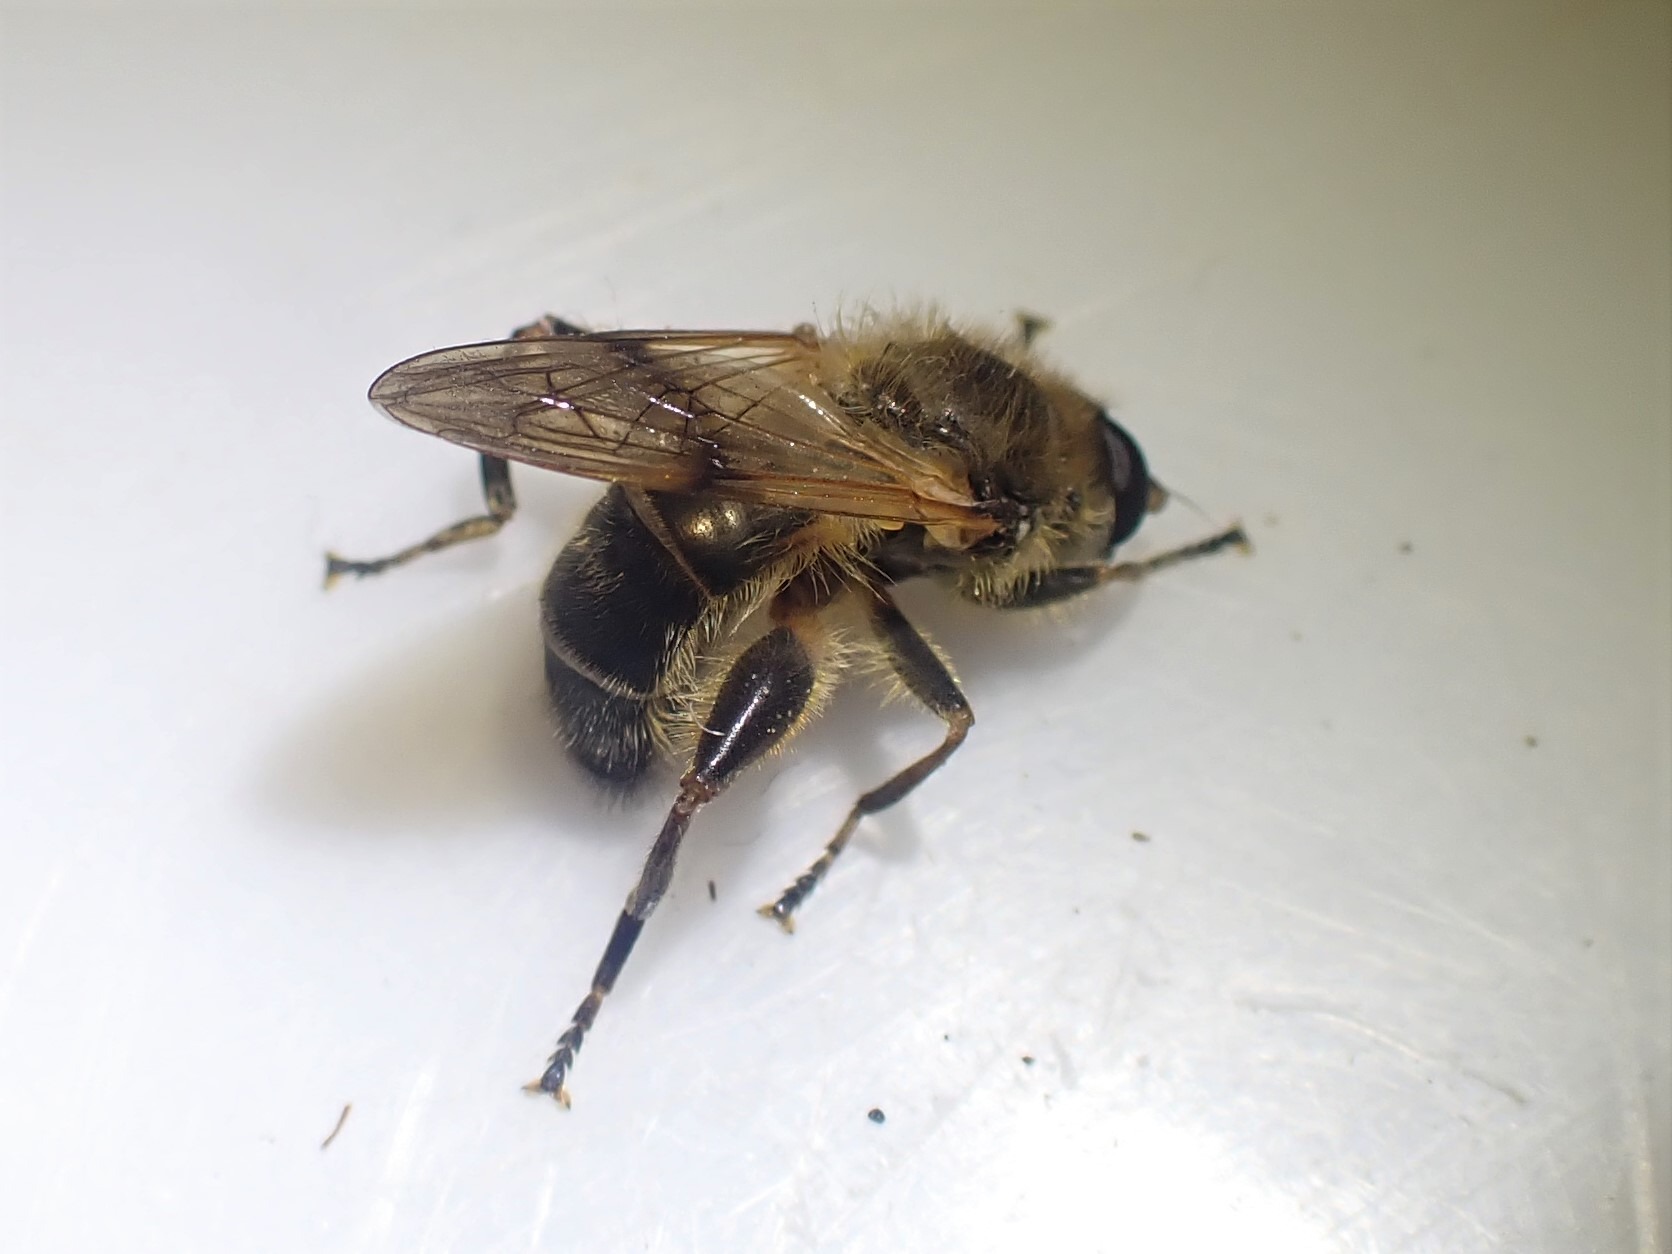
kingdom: Animalia
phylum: Arthropoda
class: Insecta
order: Diptera
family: Syrphidae
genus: Brachypalpus
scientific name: Brachypalpus valgus
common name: Brun træsmuldsvirreflue
